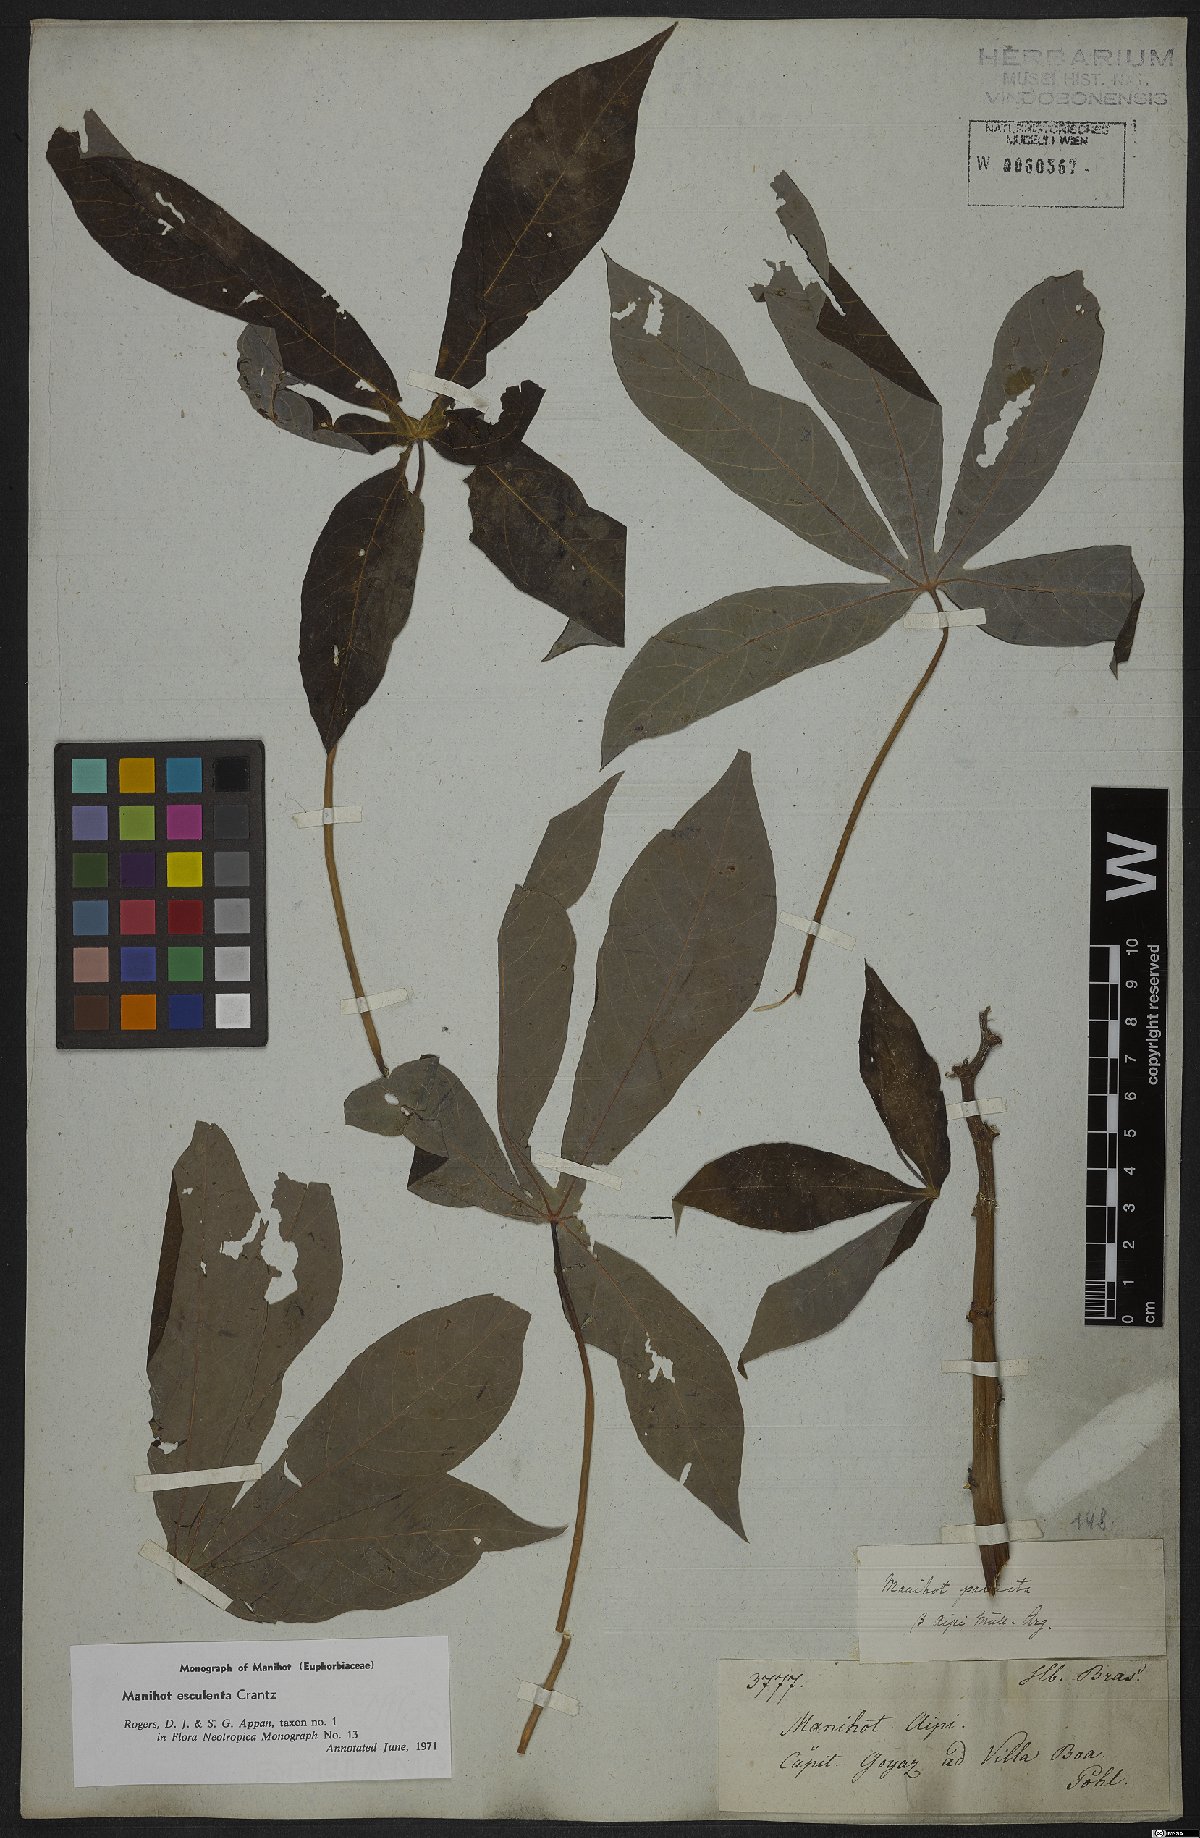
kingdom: Plantae
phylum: Tracheophyta
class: Magnoliopsida
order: Malpighiales
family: Euphorbiaceae
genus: Manihot
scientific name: Manihot esculenta
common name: Cassava
